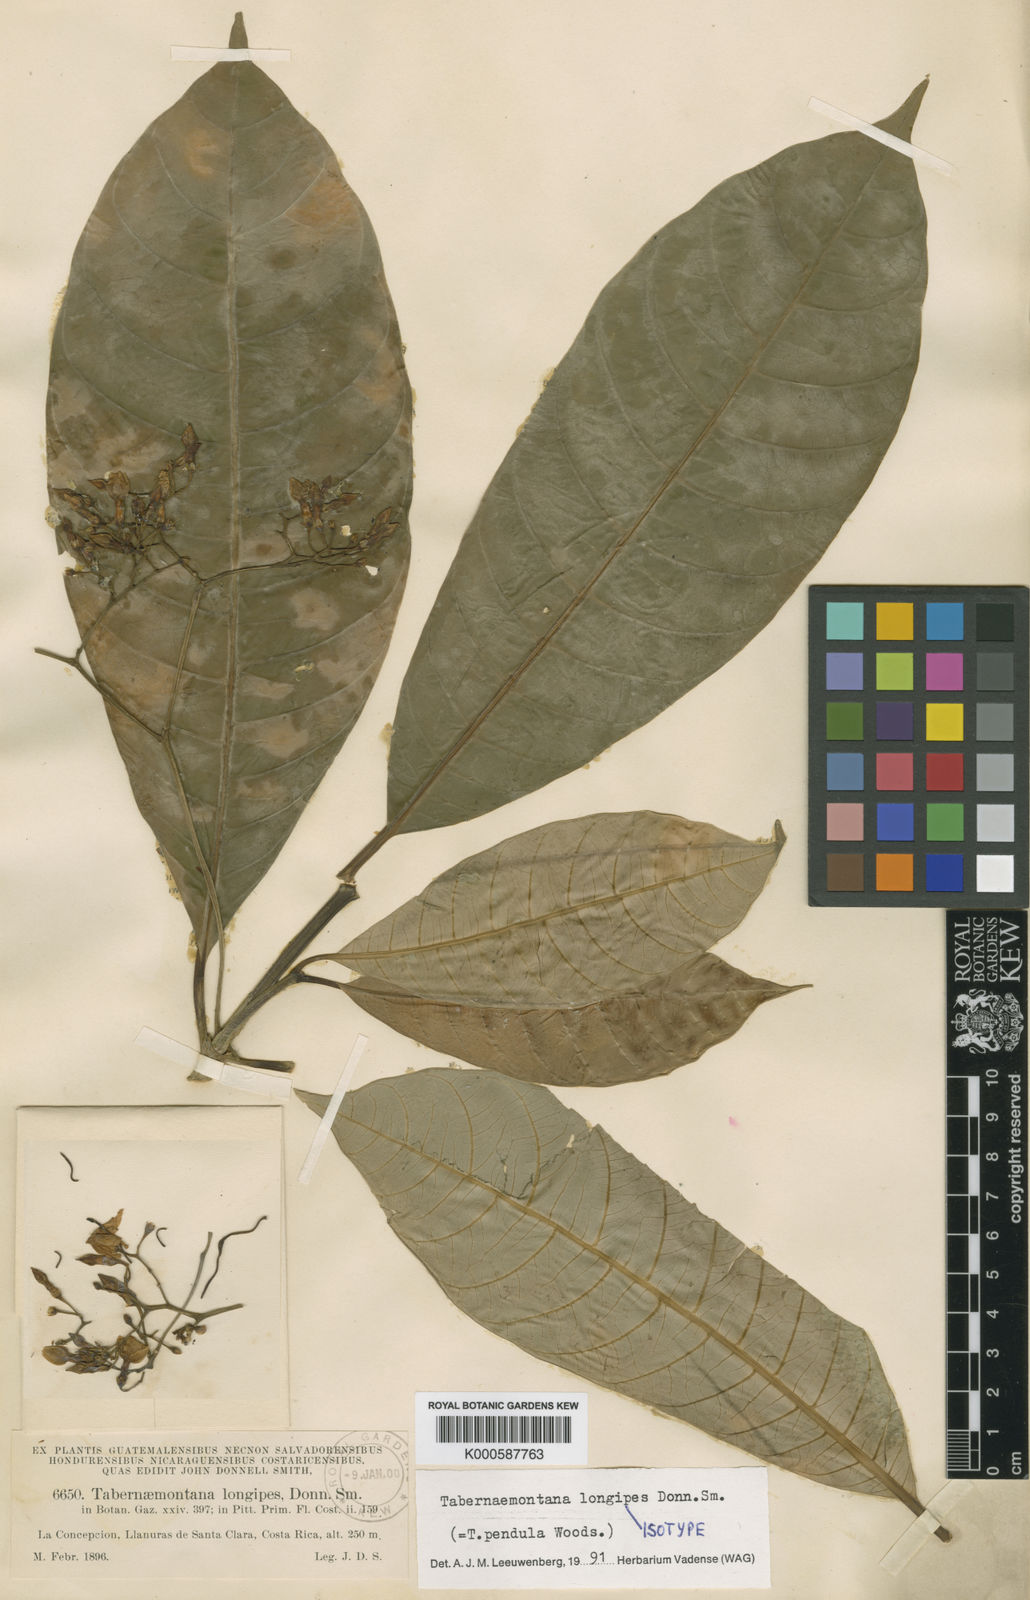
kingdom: Plantae
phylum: Tracheophyta
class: Magnoliopsida
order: Gentianales
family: Apocynaceae
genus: Tabernaemontana
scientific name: Tabernaemontana longipes
